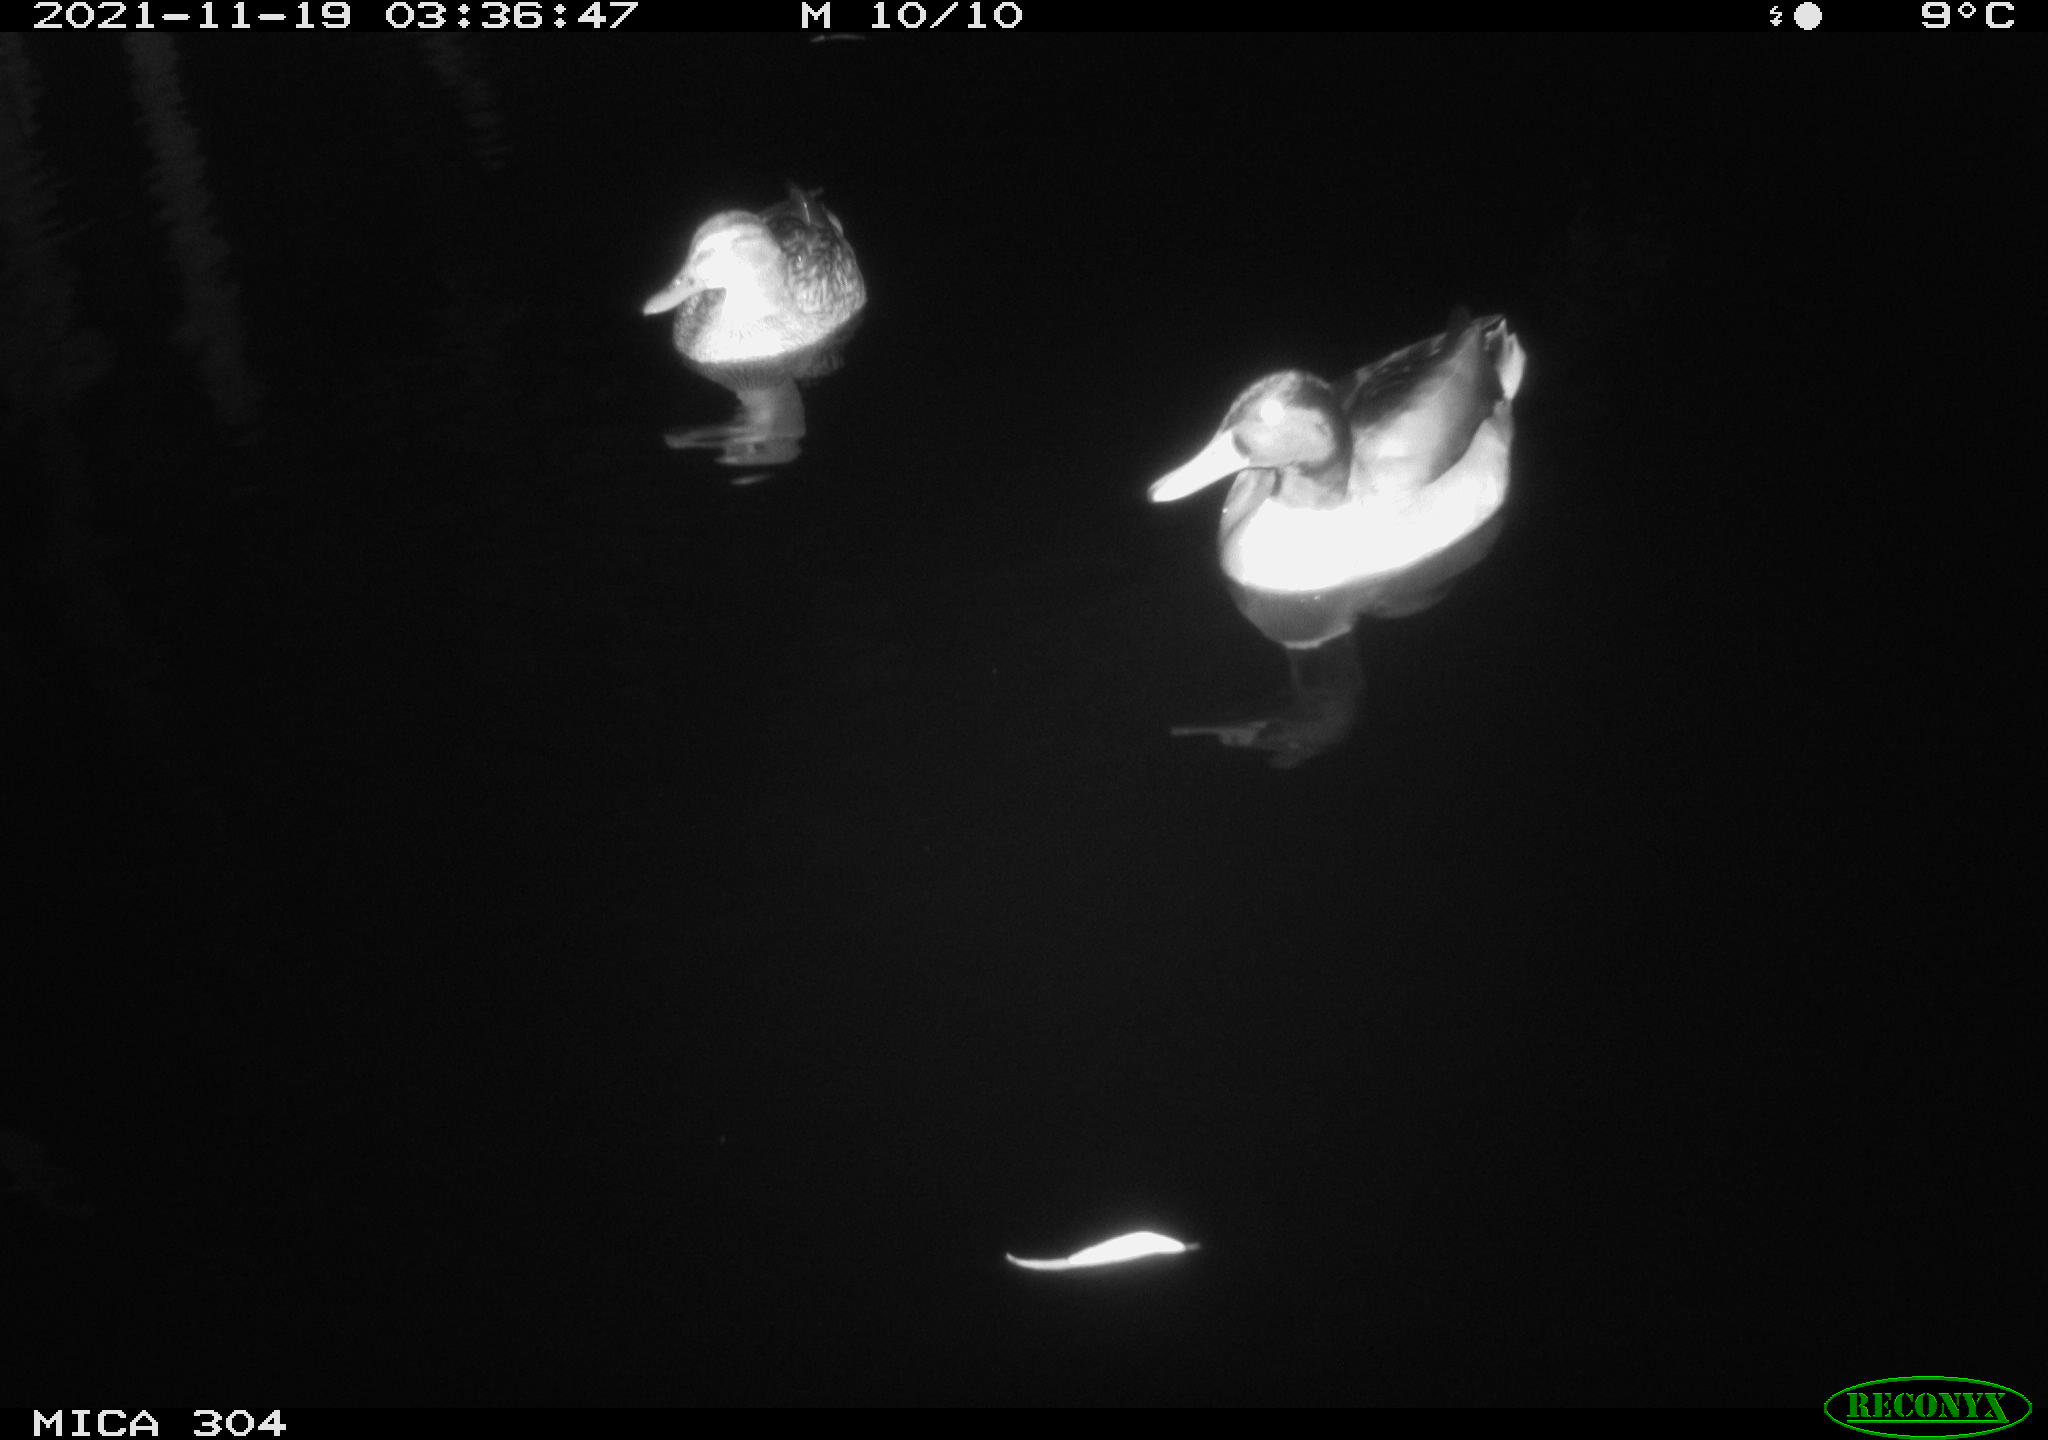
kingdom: Animalia
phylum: Chordata
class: Aves
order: Anseriformes
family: Anatidae
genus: Anas
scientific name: Anas platyrhynchos
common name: Mallard
